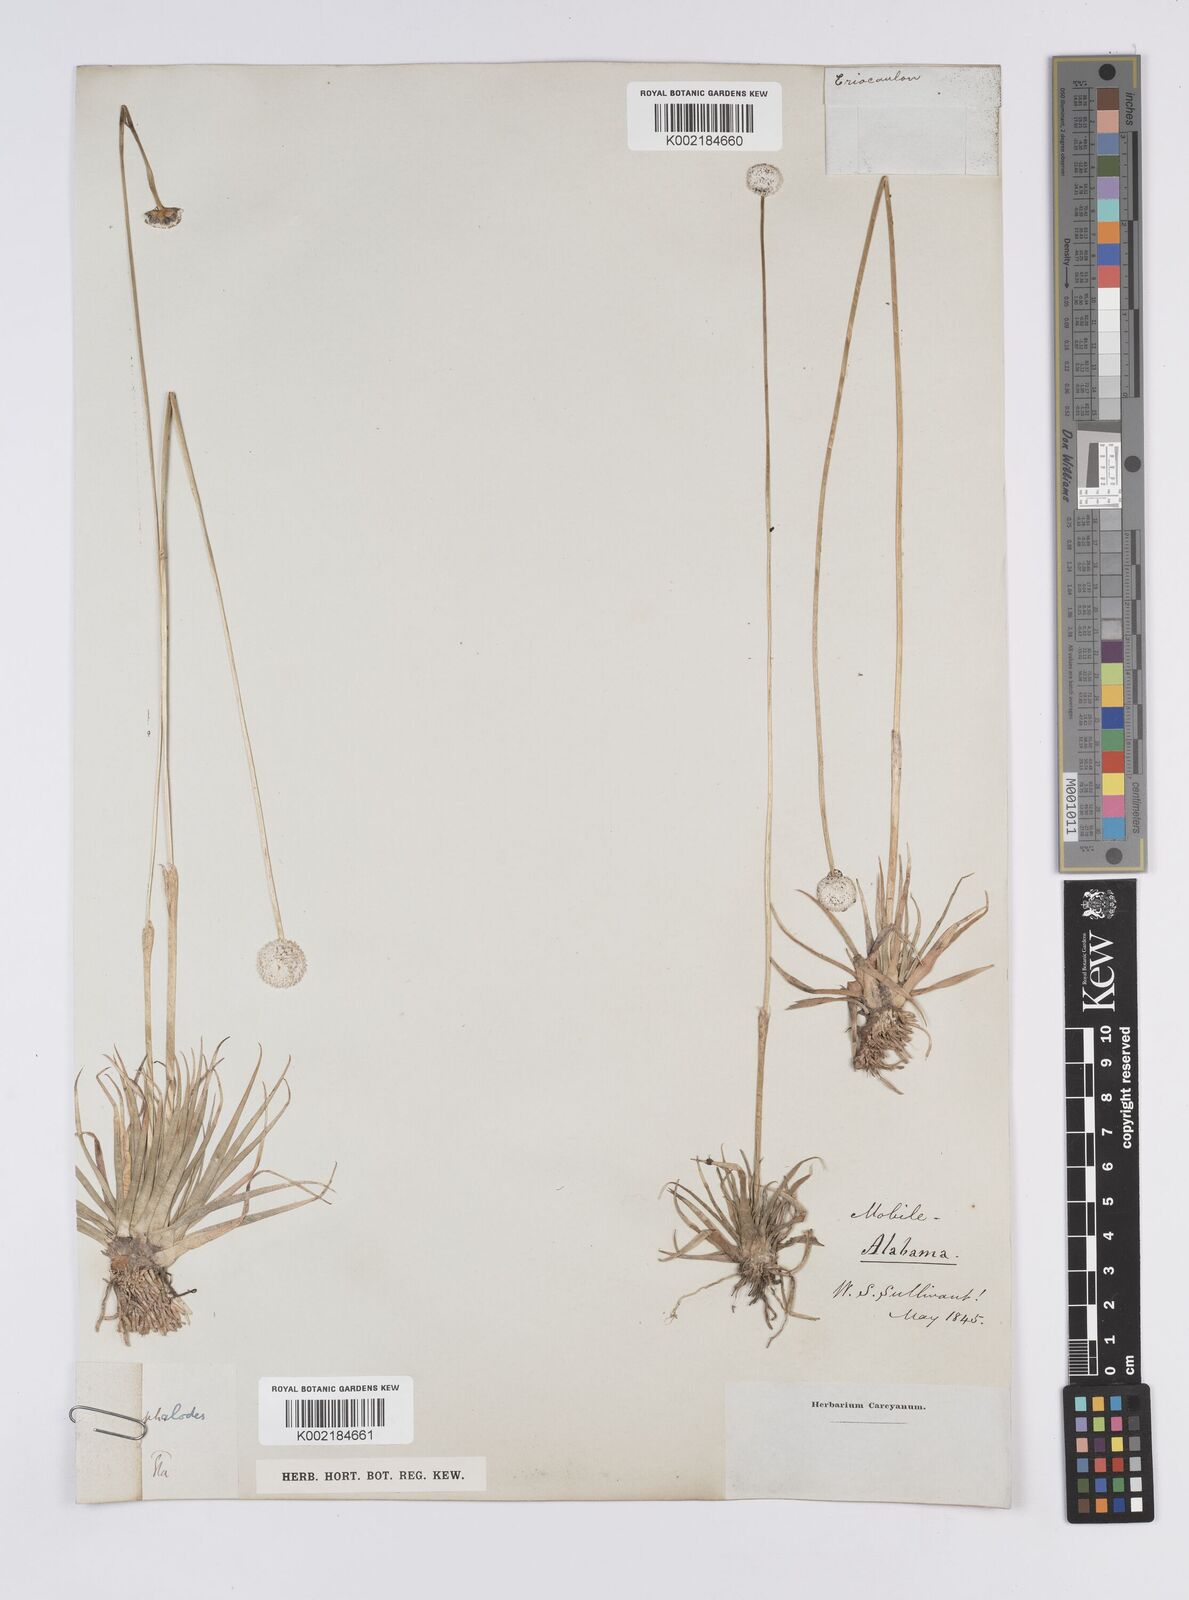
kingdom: Plantae
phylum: Tracheophyta
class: Liliopsida
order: Poales
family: Eriocaulaceae
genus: Eriocaulon
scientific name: Eriocaulon compressum
